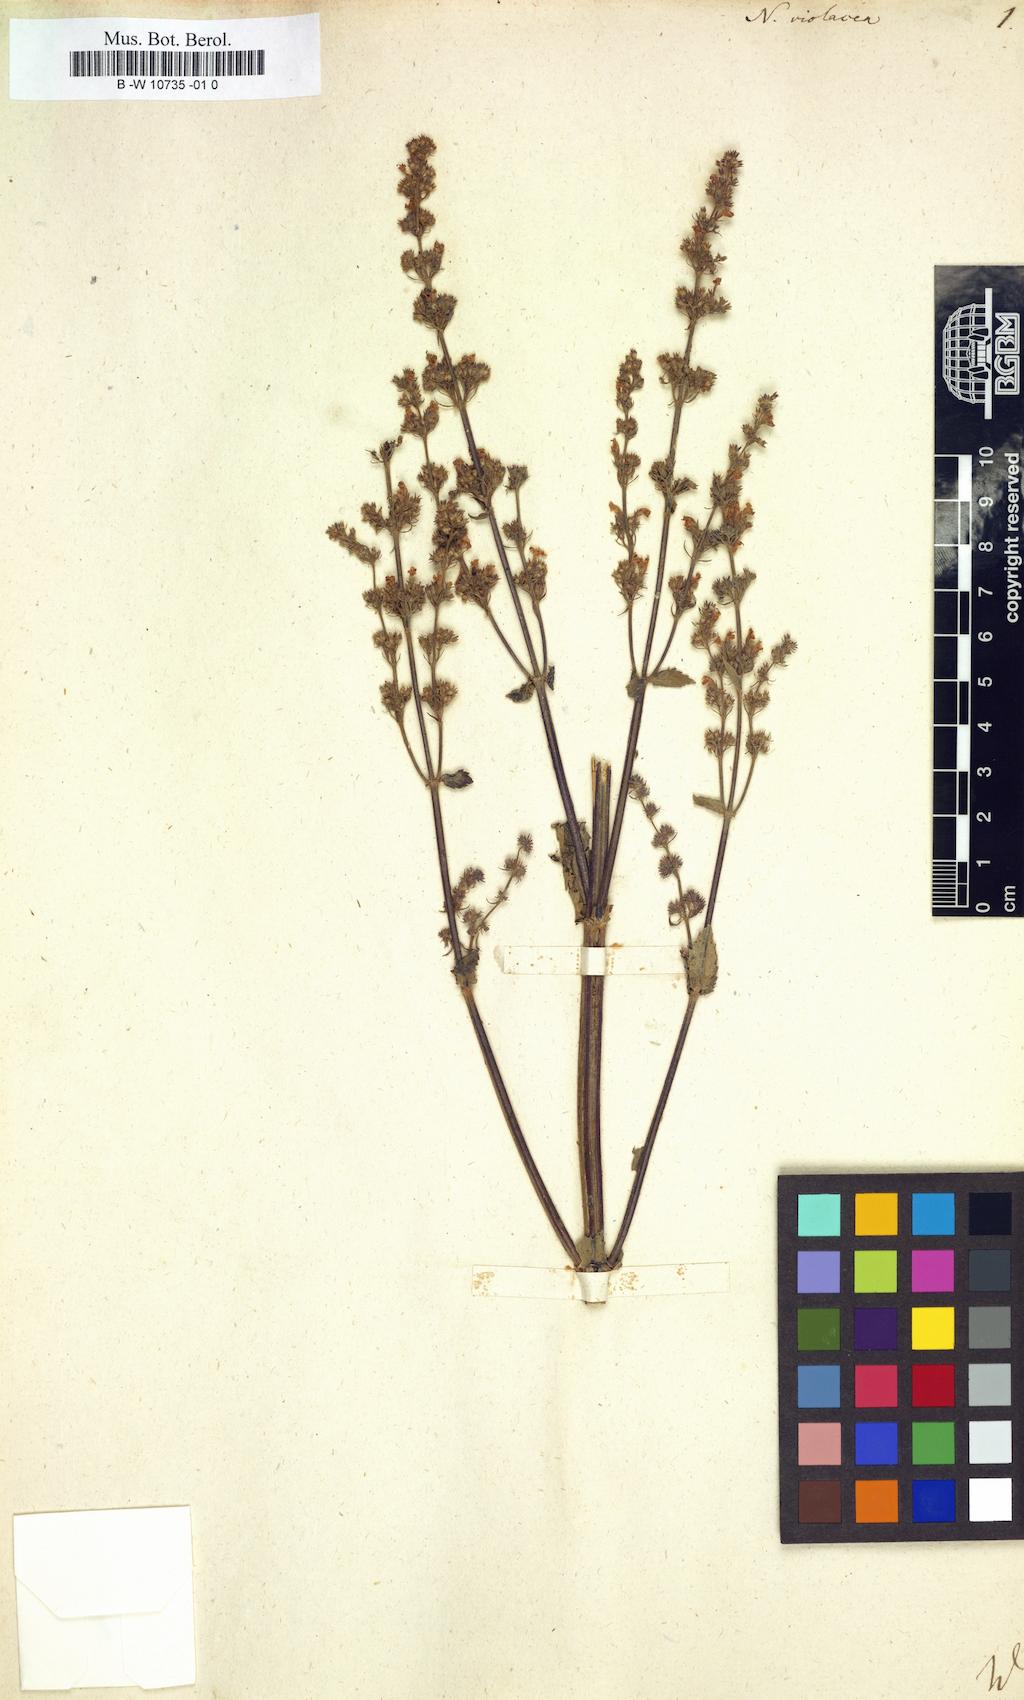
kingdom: Plantae
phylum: Tracheophyta
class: Magnoliopsida
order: Lamiales
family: Lamiaceae
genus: Nepeta
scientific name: Nepeta nuda
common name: Hairless catmint
